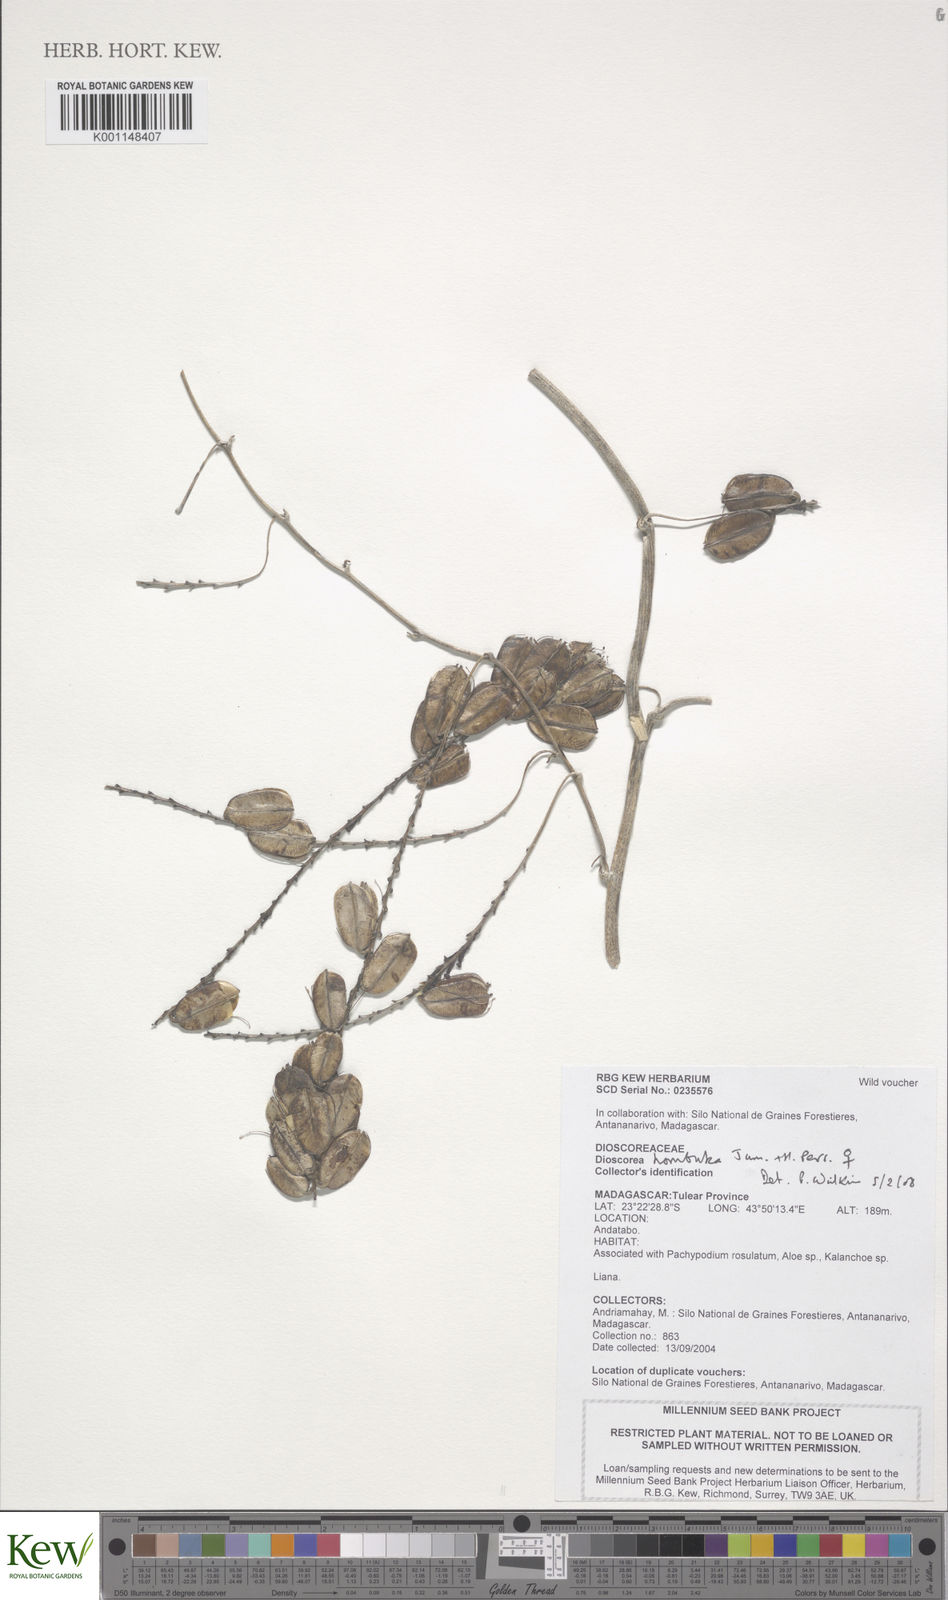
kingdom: Plantae
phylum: Tracheophyta
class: Liliopsida
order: Dioscoreales
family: Dioscoreaceae
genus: Dioscorea
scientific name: Dioscorea hombuka
